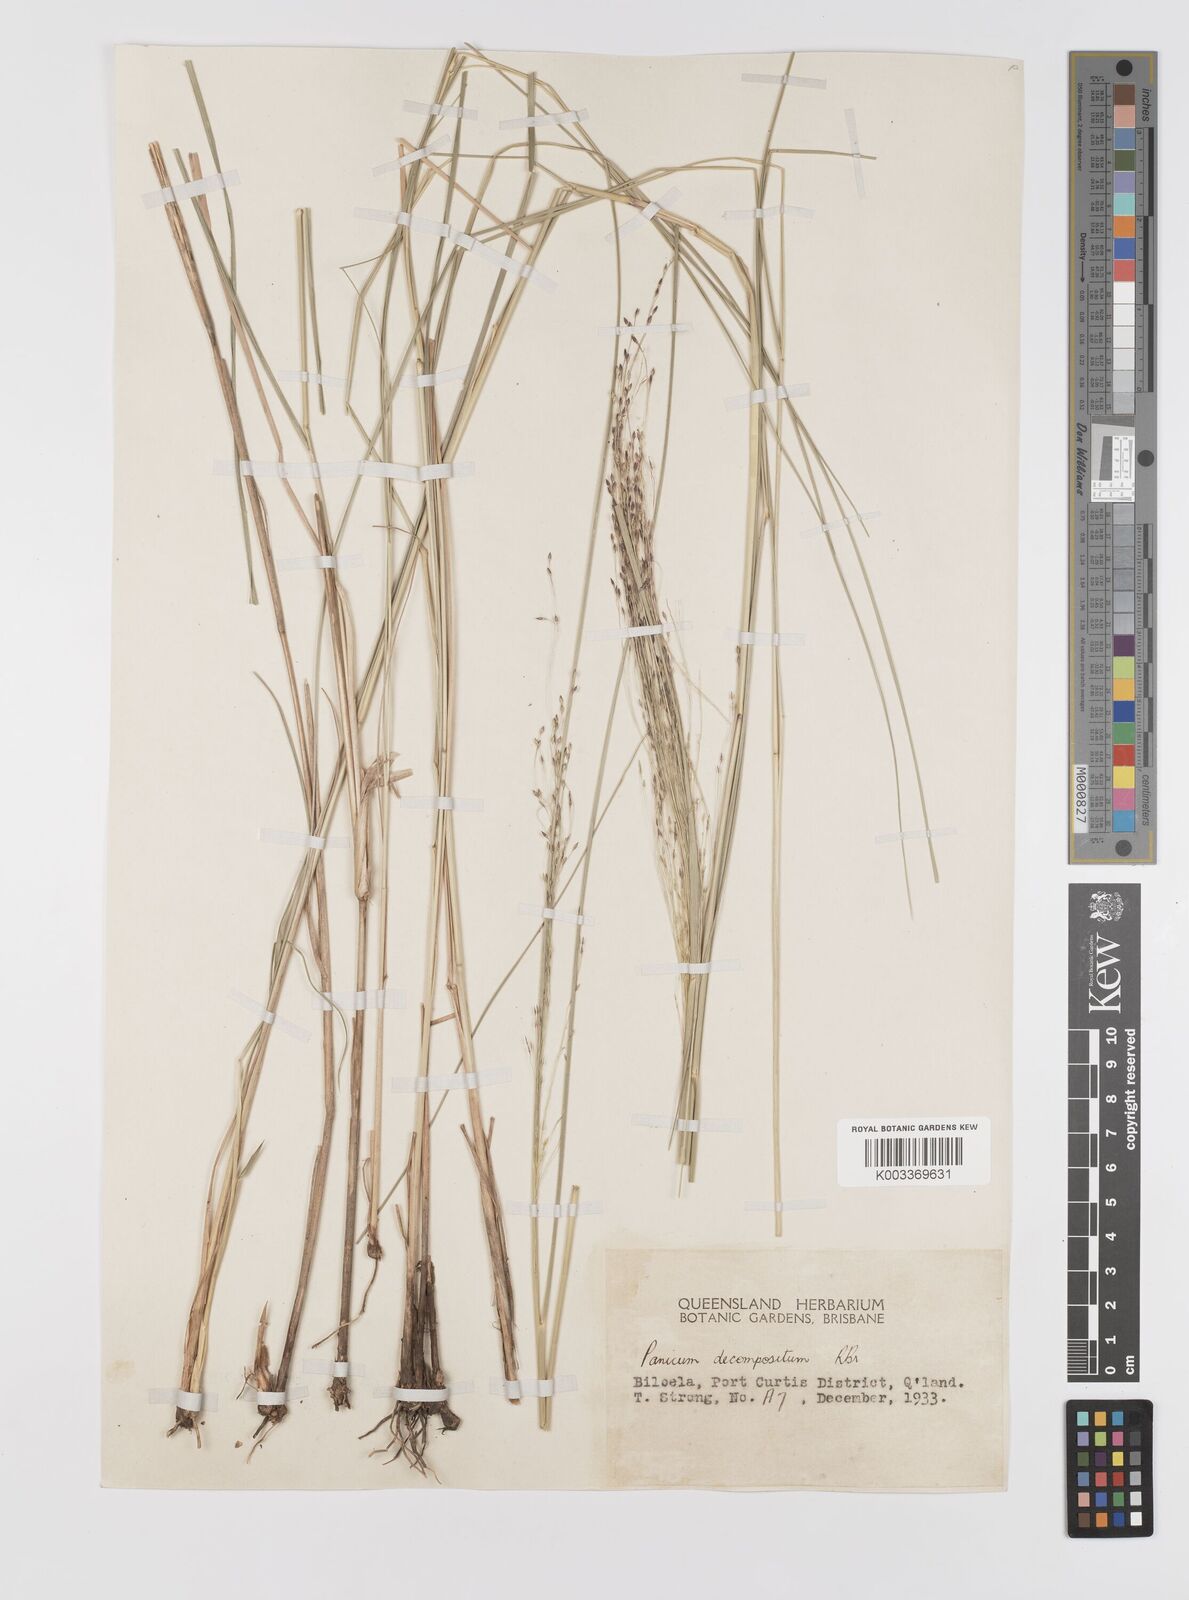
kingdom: Plantae
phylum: Tracheophyta
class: Liliopsida
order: Poales
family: Poaceae
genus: Panicum
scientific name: Panicum decompositum
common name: Australian millet
